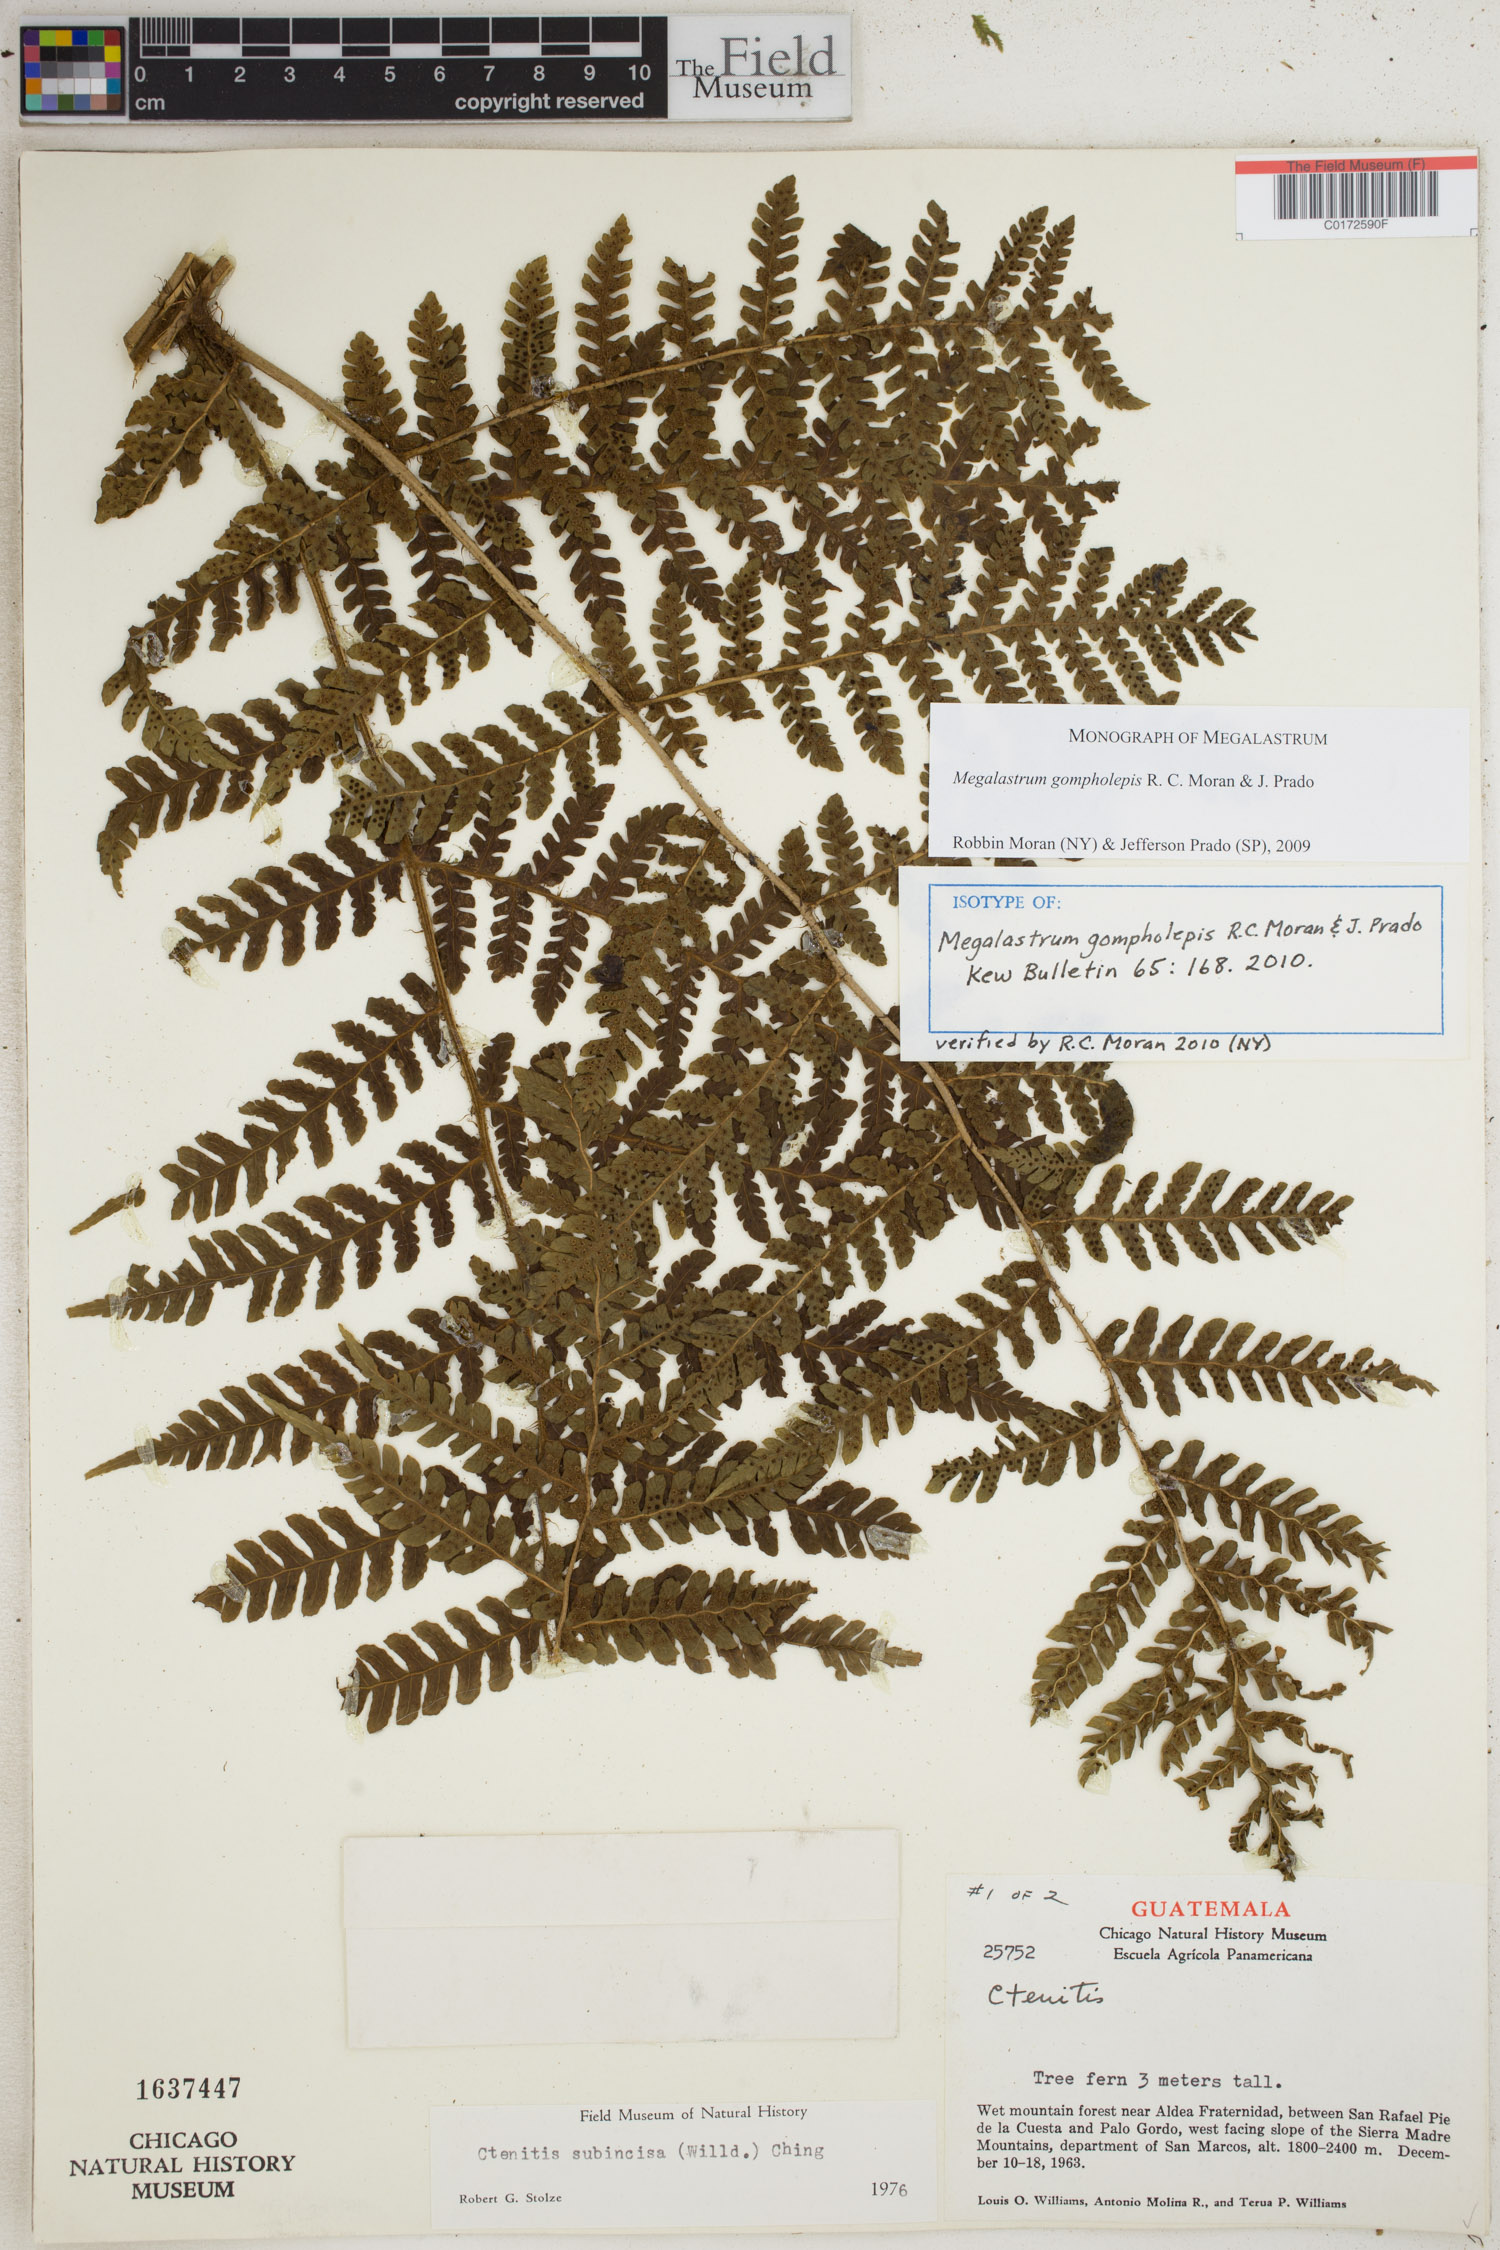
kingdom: Plantae
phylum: Tracheophyta
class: Polypodiopsida
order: Polypodiales
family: Dryopteridaceae
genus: Megalastrum
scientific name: Megalastrum gompholepis
